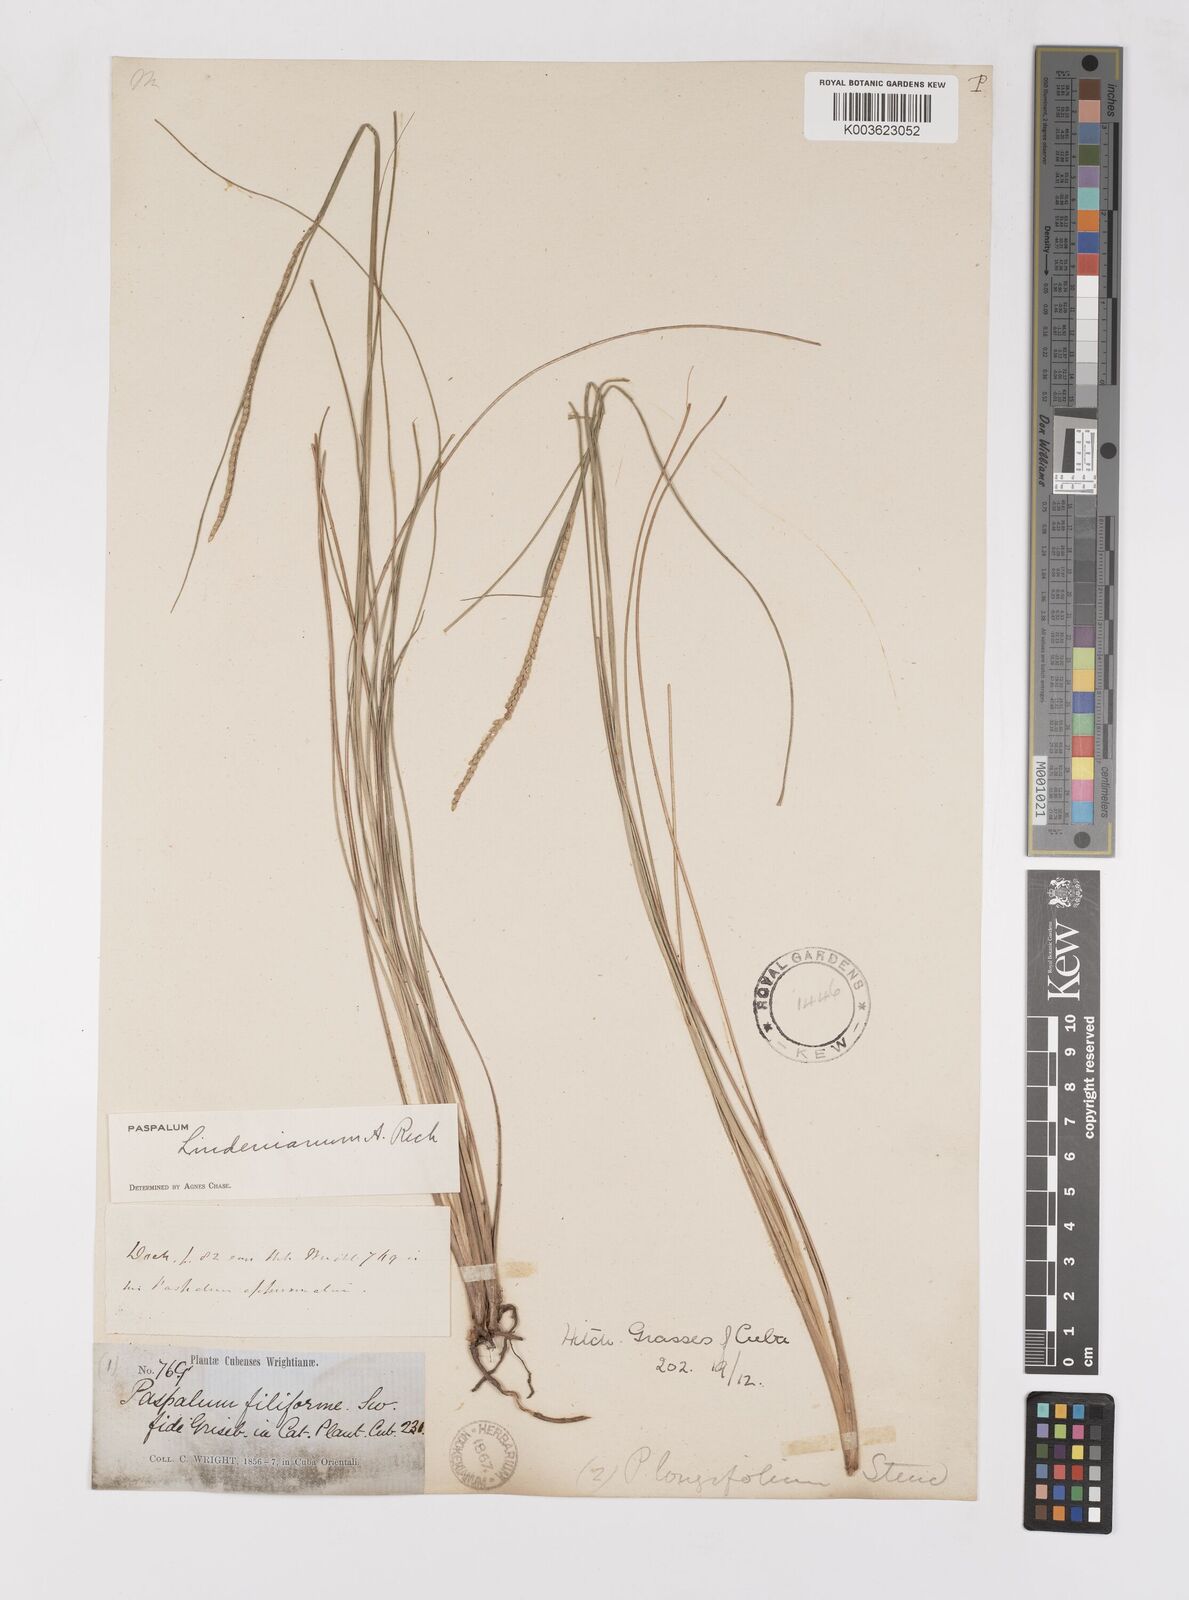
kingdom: Plantae
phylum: Tracheophyta
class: Liliopsida
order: Poales
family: Poaceae
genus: Paspalum
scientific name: Paspalum lindenianum
